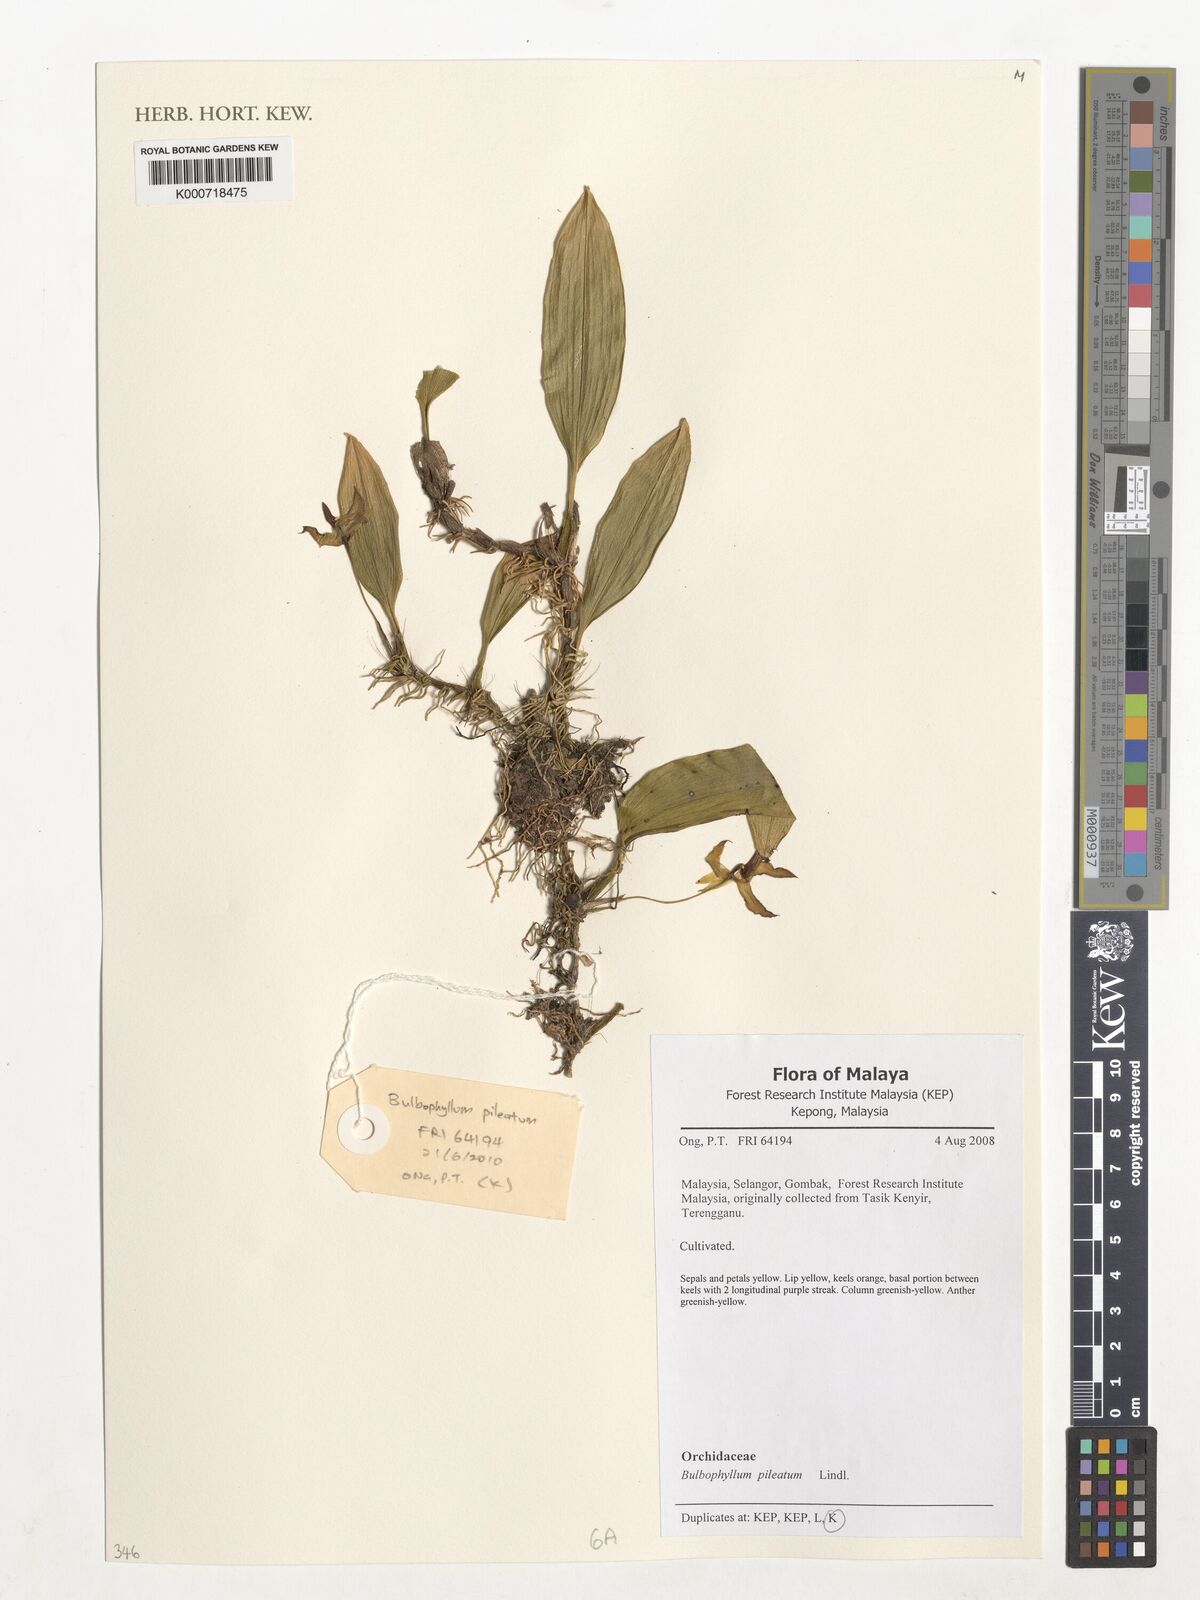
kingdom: Plantae
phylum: Tracheophyta
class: Liliopsida
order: Asparagales
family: Orchidaceae
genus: Bulbophyllum
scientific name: Bulbophyllum pileatum
